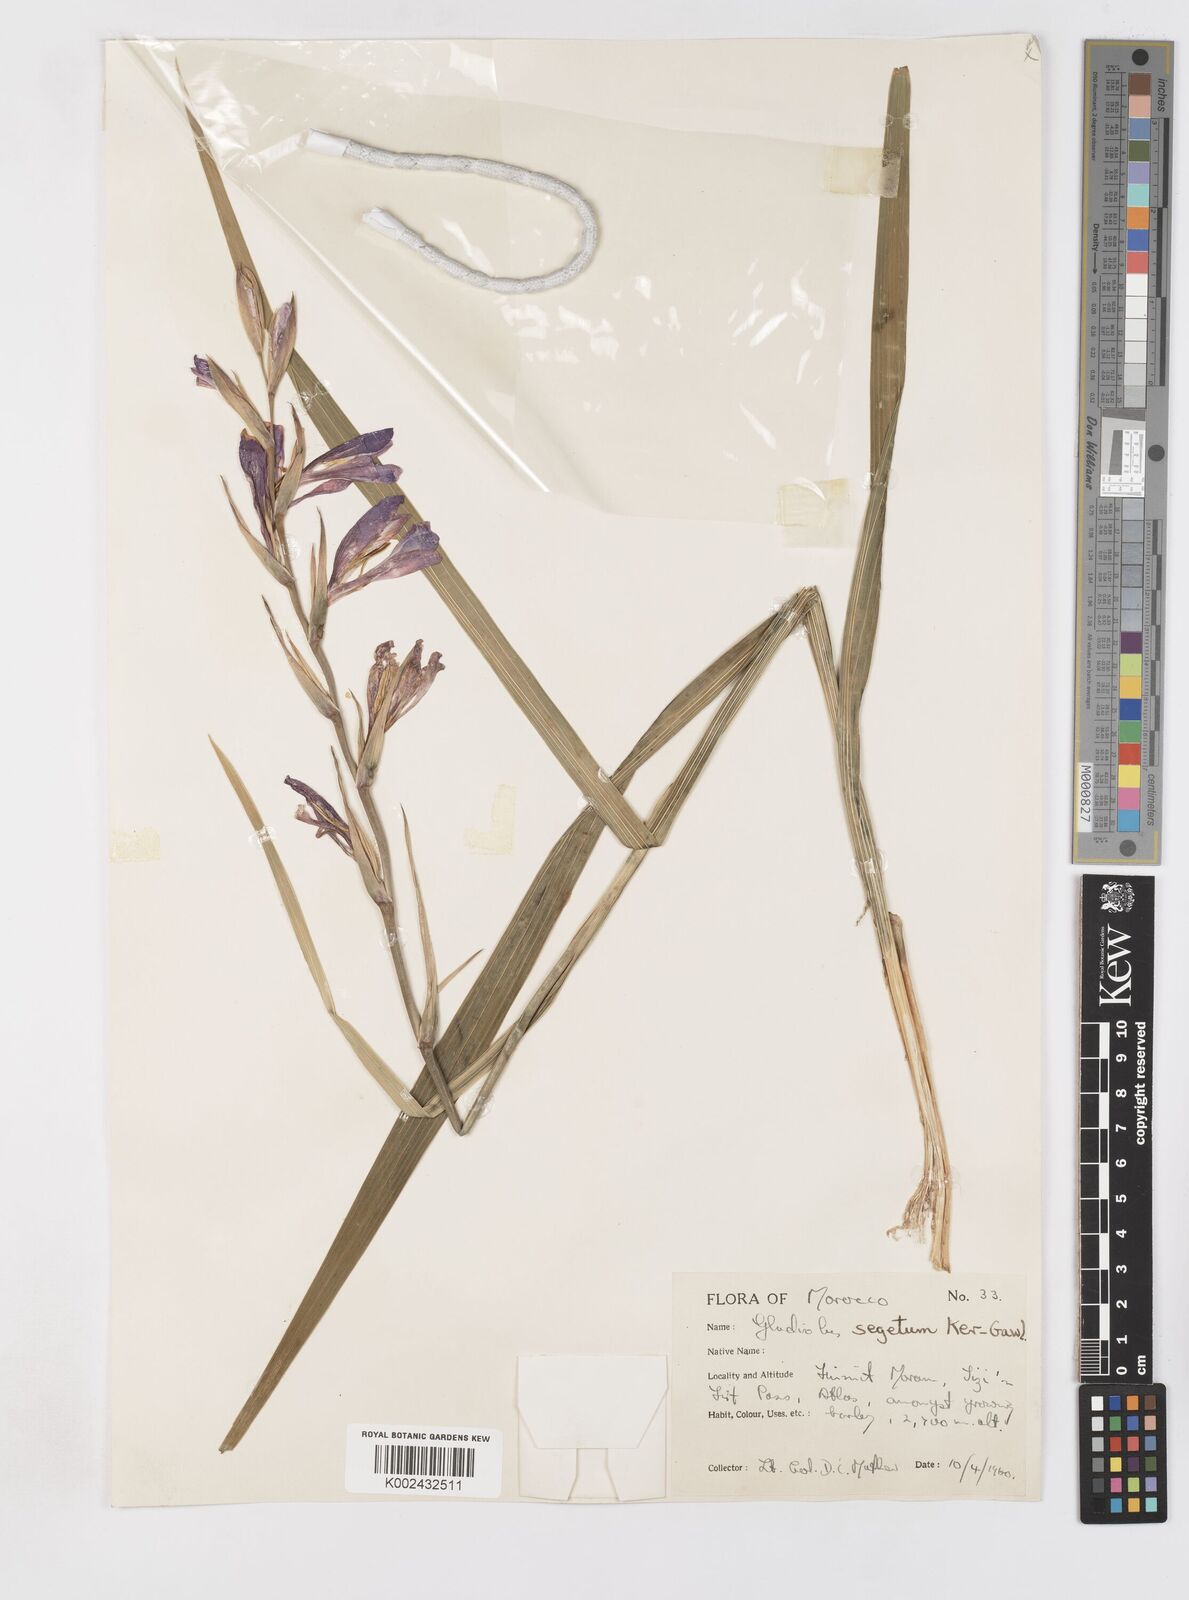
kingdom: Plantae
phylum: Tracheophyta
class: Liliopsida
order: Asparagales
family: Iridaceae
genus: Gladiolus
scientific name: Gladiolus italicus
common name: Field gladiolus
